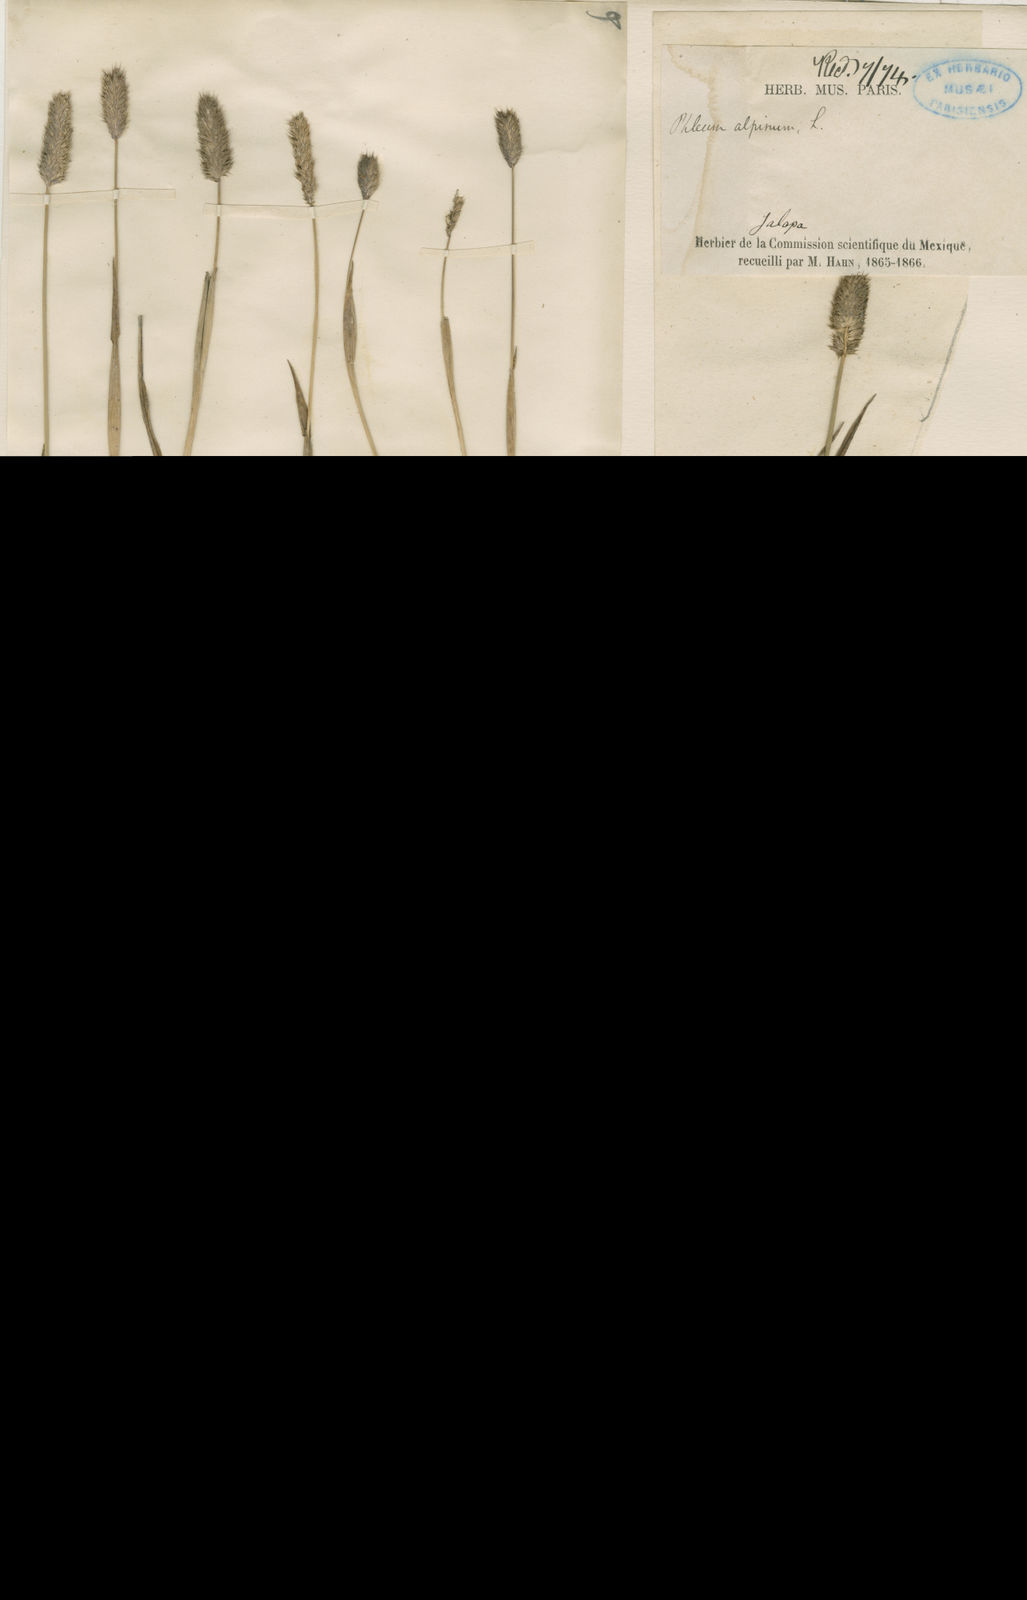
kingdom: Plantae
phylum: Tracheophyta
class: Liliopsida
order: Poales
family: Poaceae
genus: Phleum
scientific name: Phleum alpinum
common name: Alpine cat's-tail
